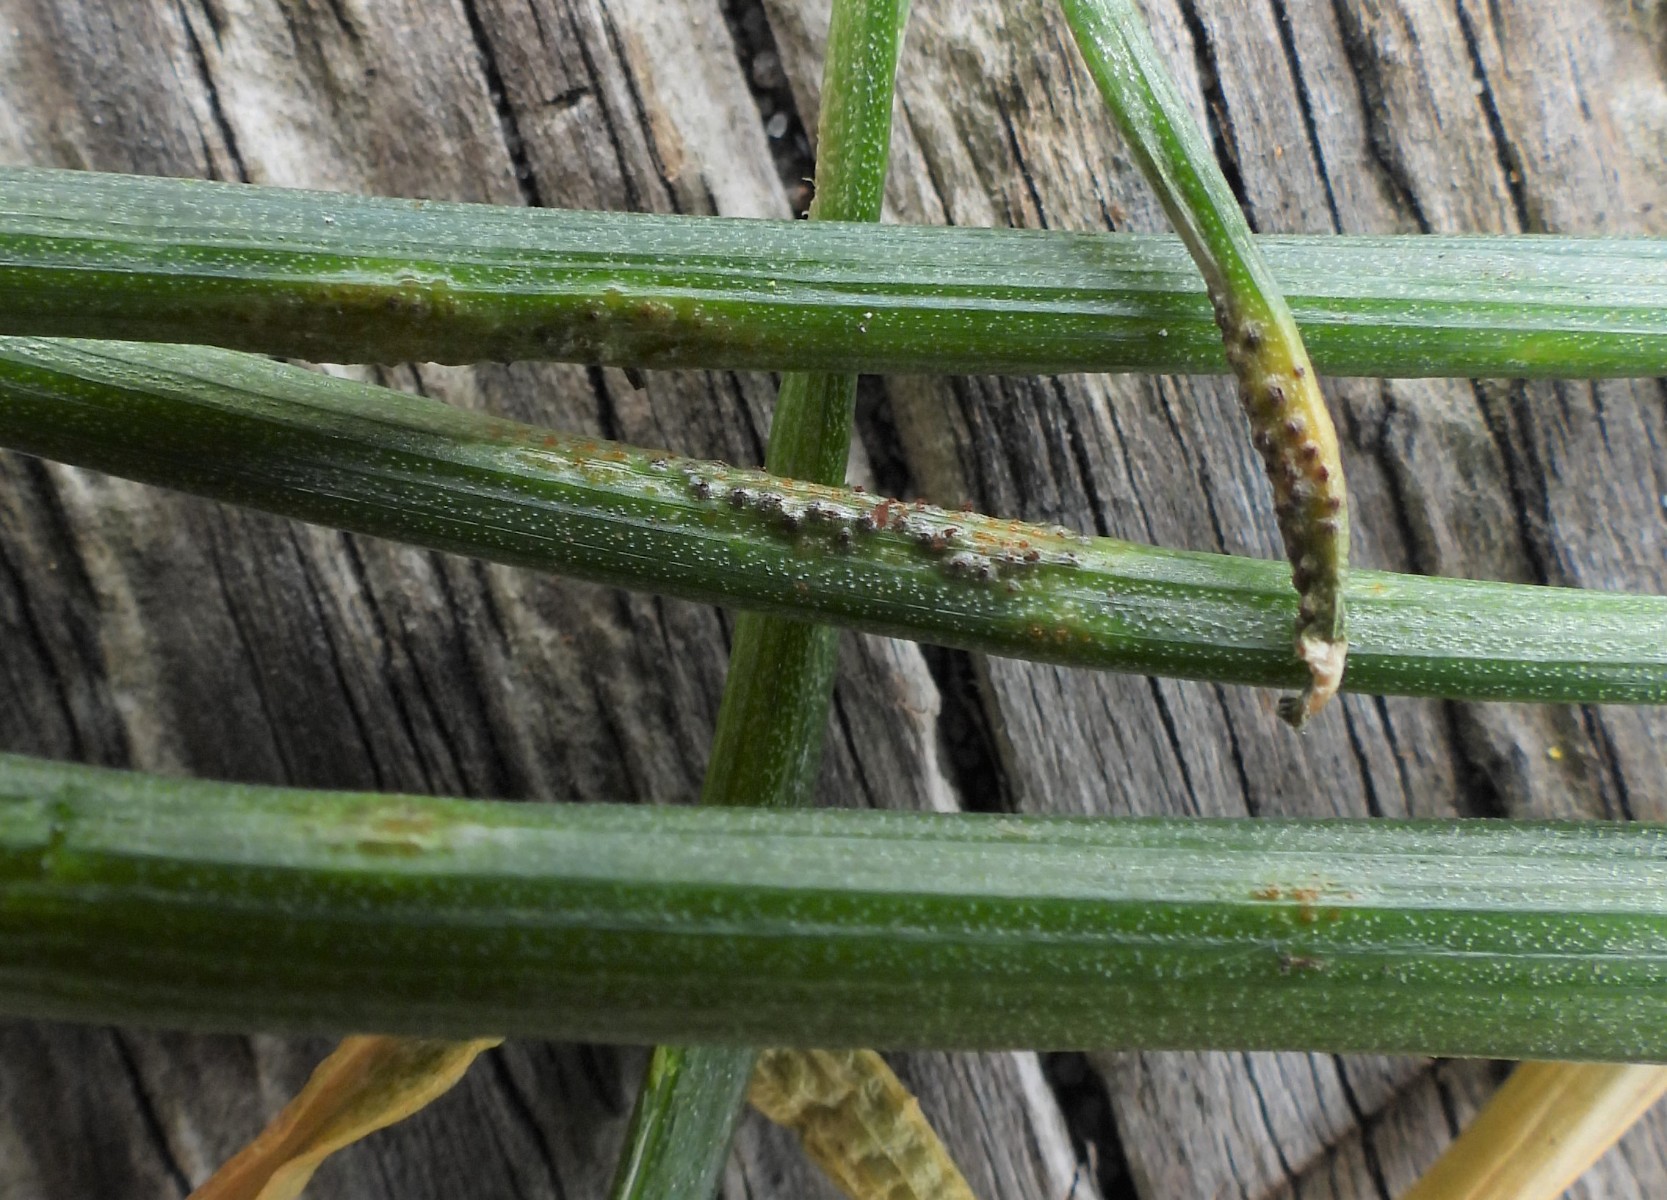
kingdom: Fungi
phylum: Basidiomycota
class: Pucciniomycetes
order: Pucciniales
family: Pucciniaceae
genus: Puccinia
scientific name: Puccinia liliacearum
